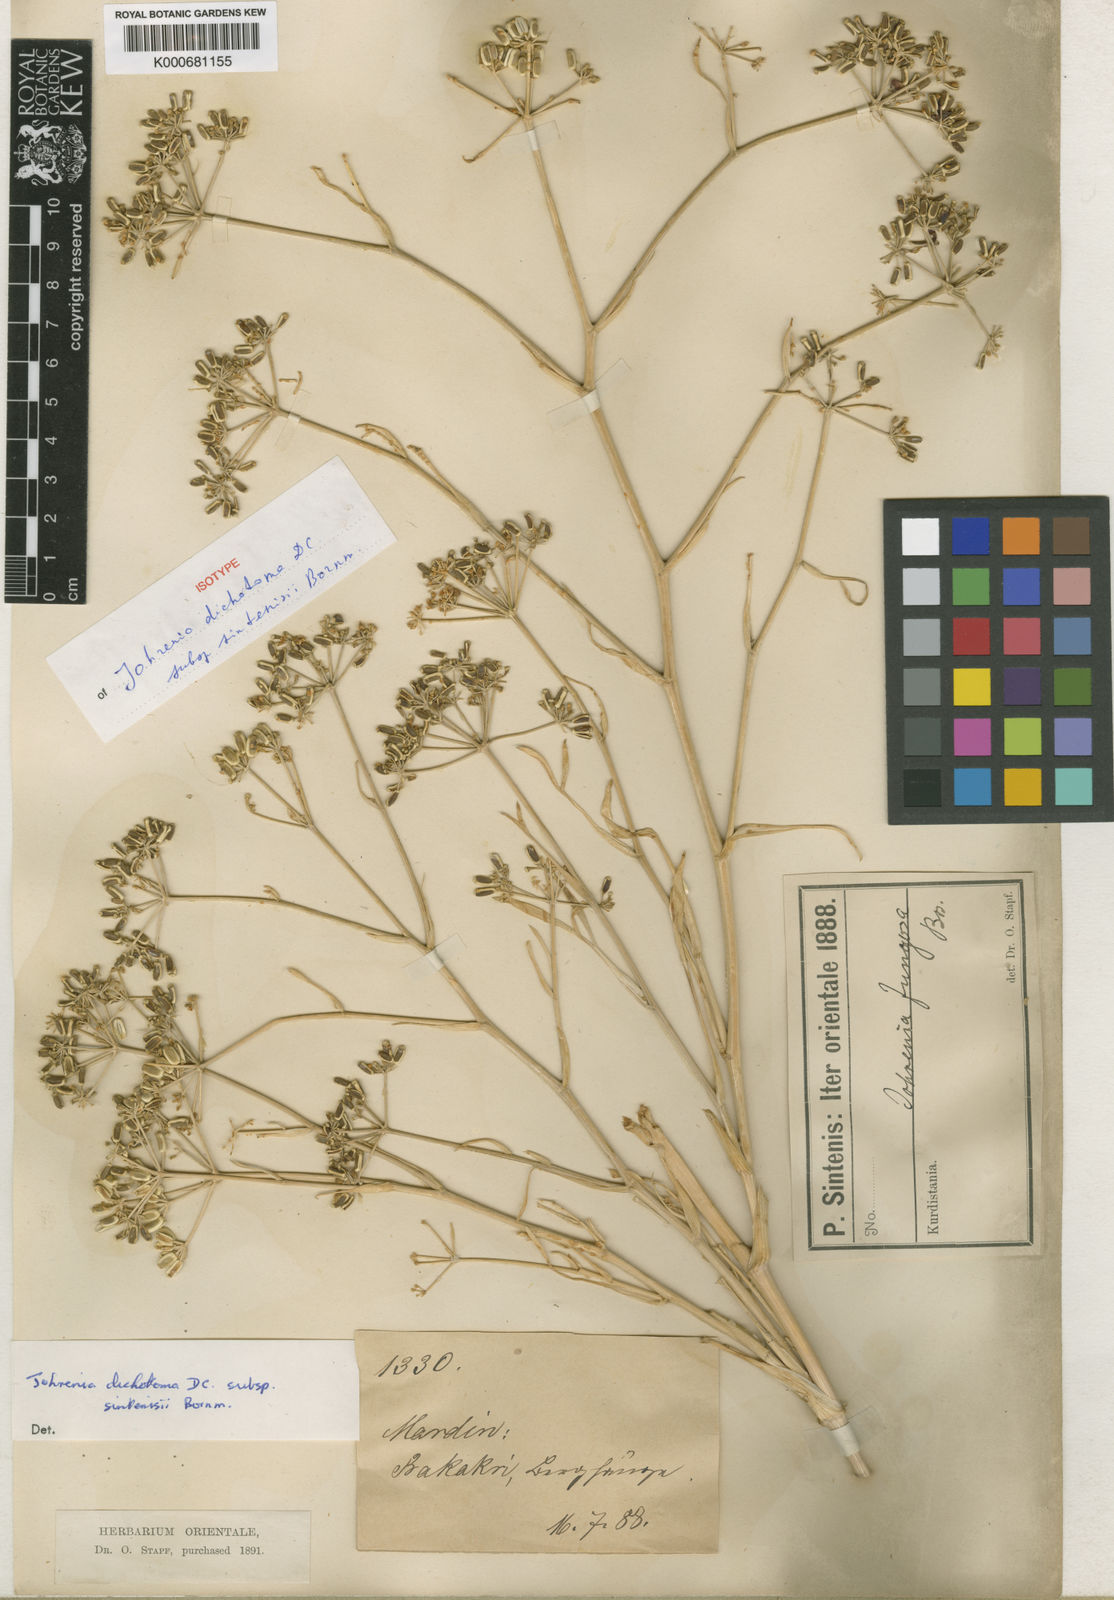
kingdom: Plantae
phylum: Tracheophyta
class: Magnoliopsida
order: Apiales
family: Apiaceae
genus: Johrenia
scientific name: Johrenia dichotoma
